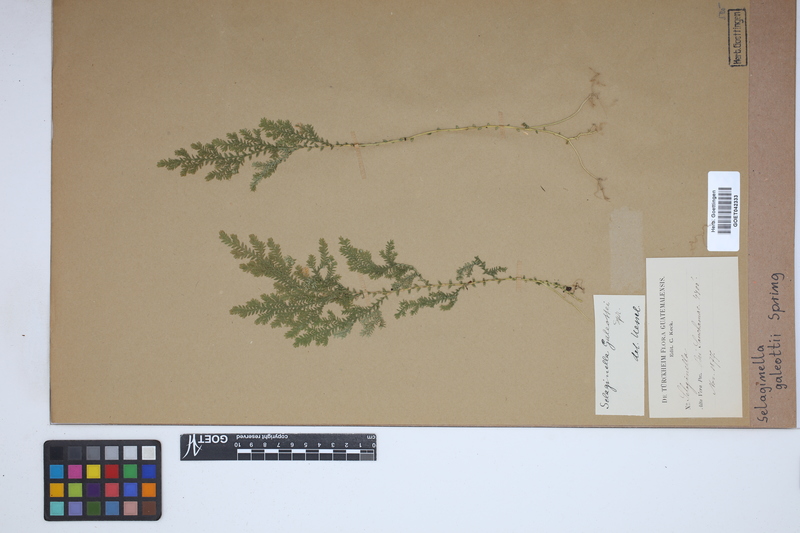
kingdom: Plantae
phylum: Tracheophyta
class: Lycopodiopsida
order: Selaginellales
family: Selaginellaceae
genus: Selaginella
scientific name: Selaginella stellata
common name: Starry spikemoss
